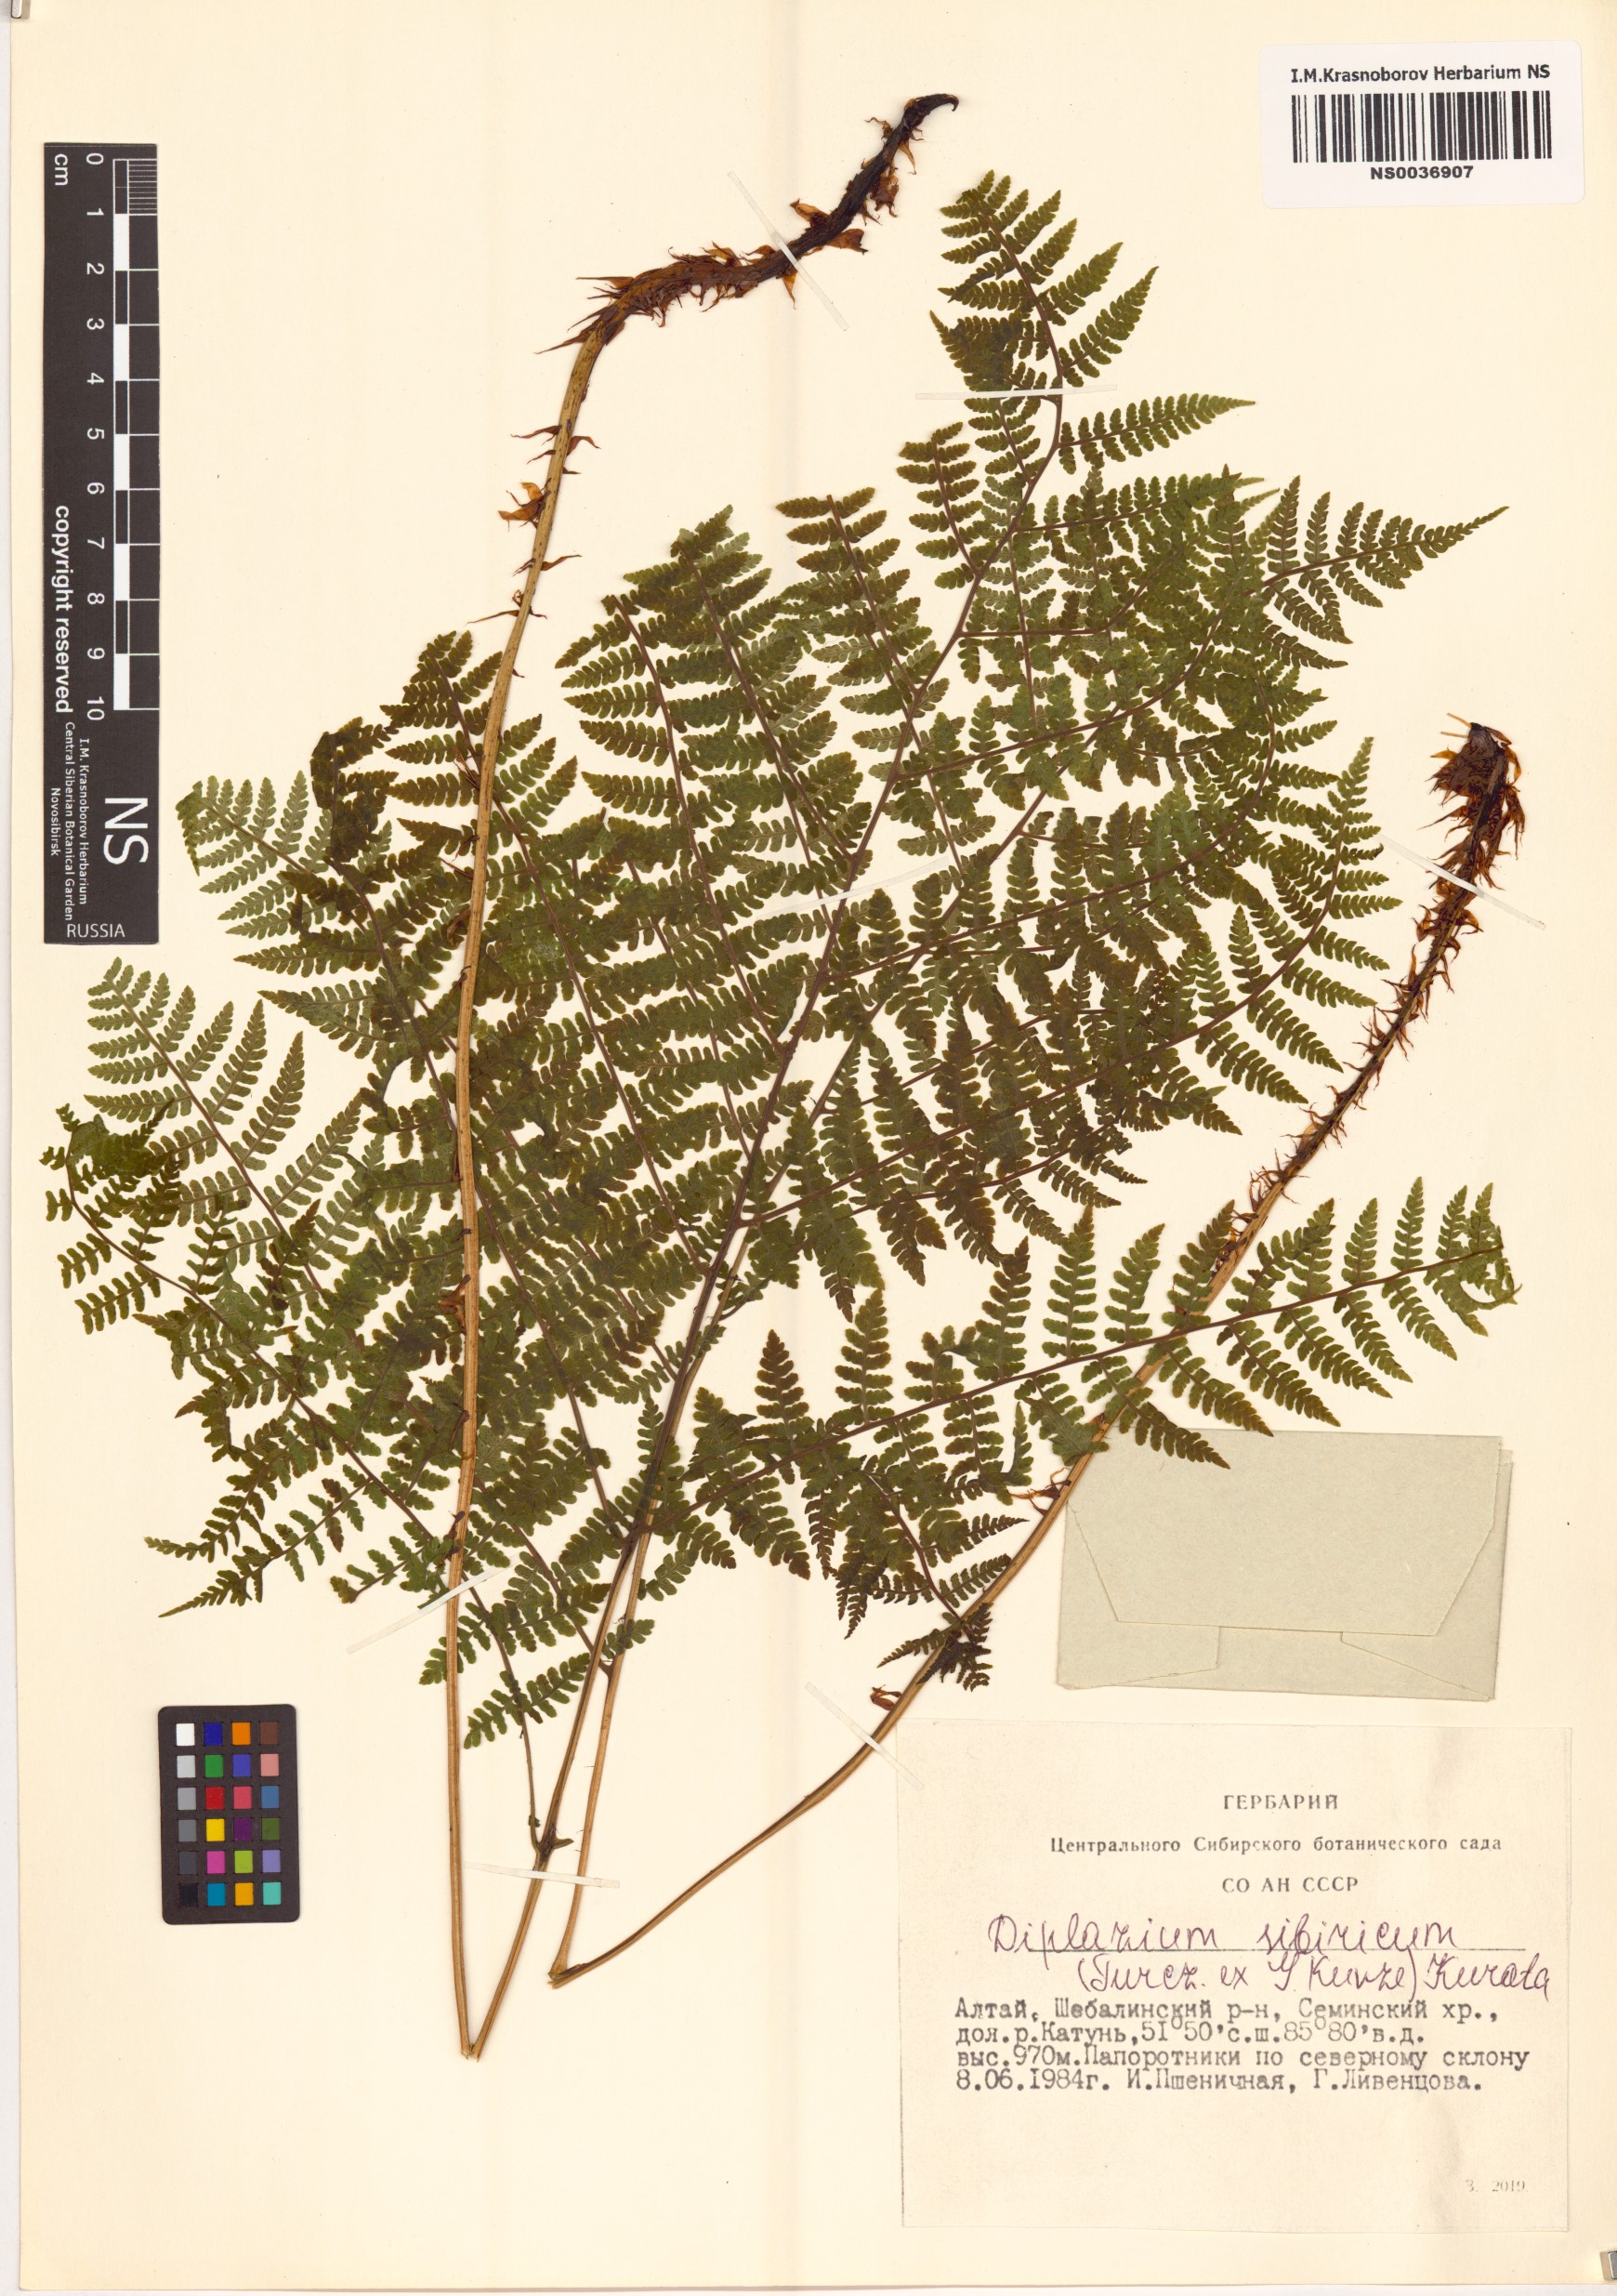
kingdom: Plantae
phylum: Tracheophyta
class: Polypodiopsida
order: Polypodiales
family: Athyriaceae
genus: Diplazium
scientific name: Diplazium sibiricum
